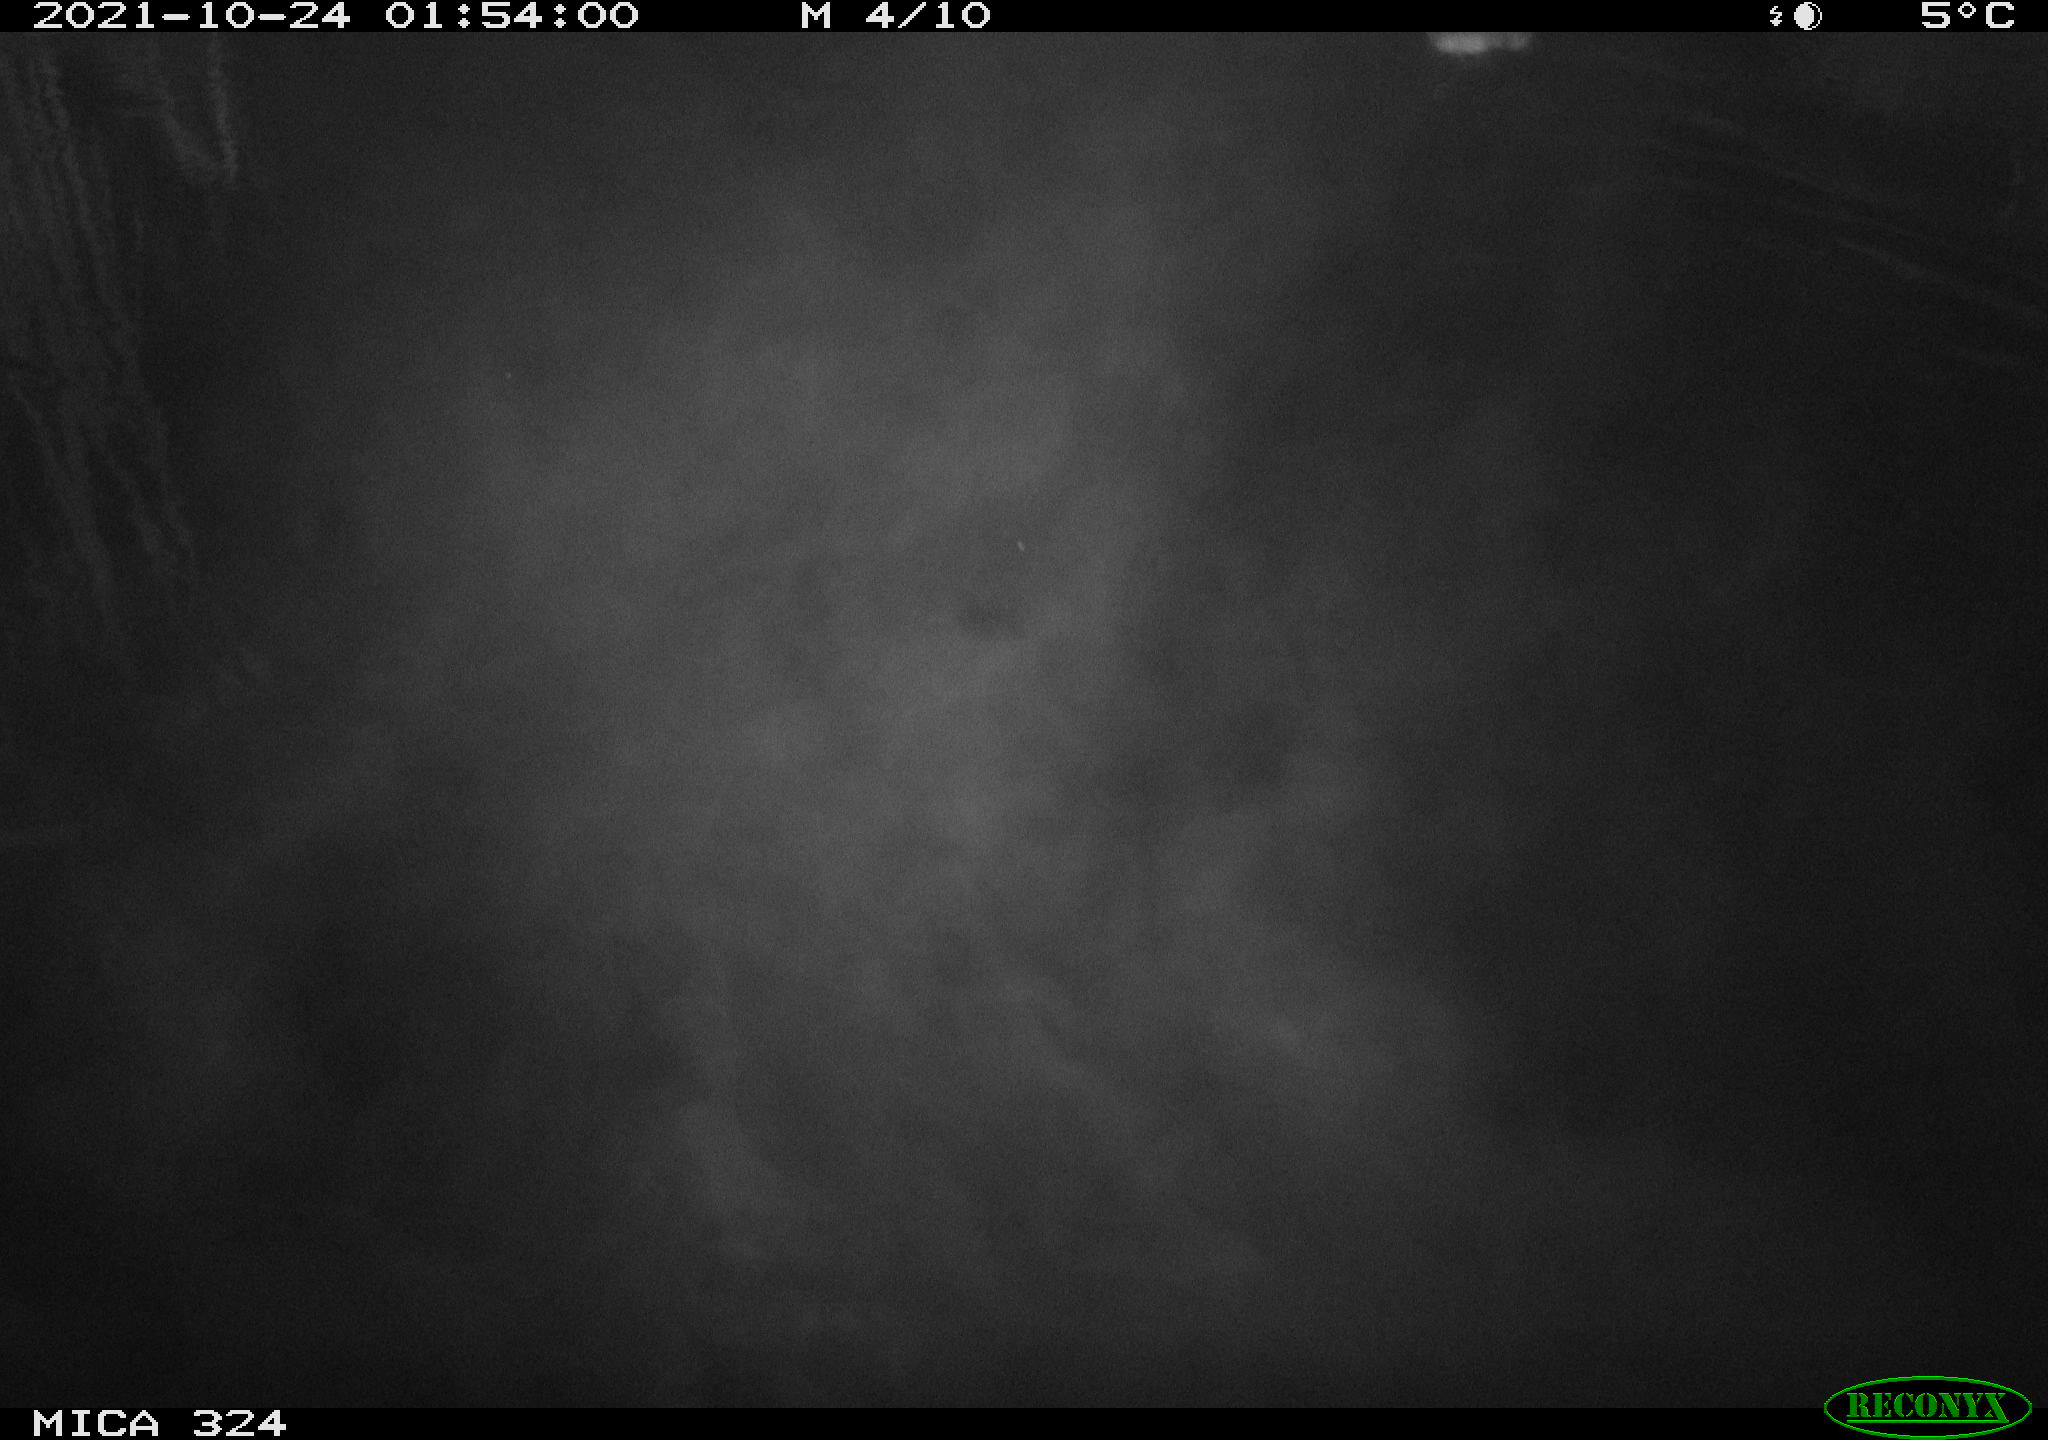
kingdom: Animalia
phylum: Chordata
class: Mammalia
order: Rodentia
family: Cricetidae
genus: Ondatra
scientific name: Ondatra zibethicus
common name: Muskrat
